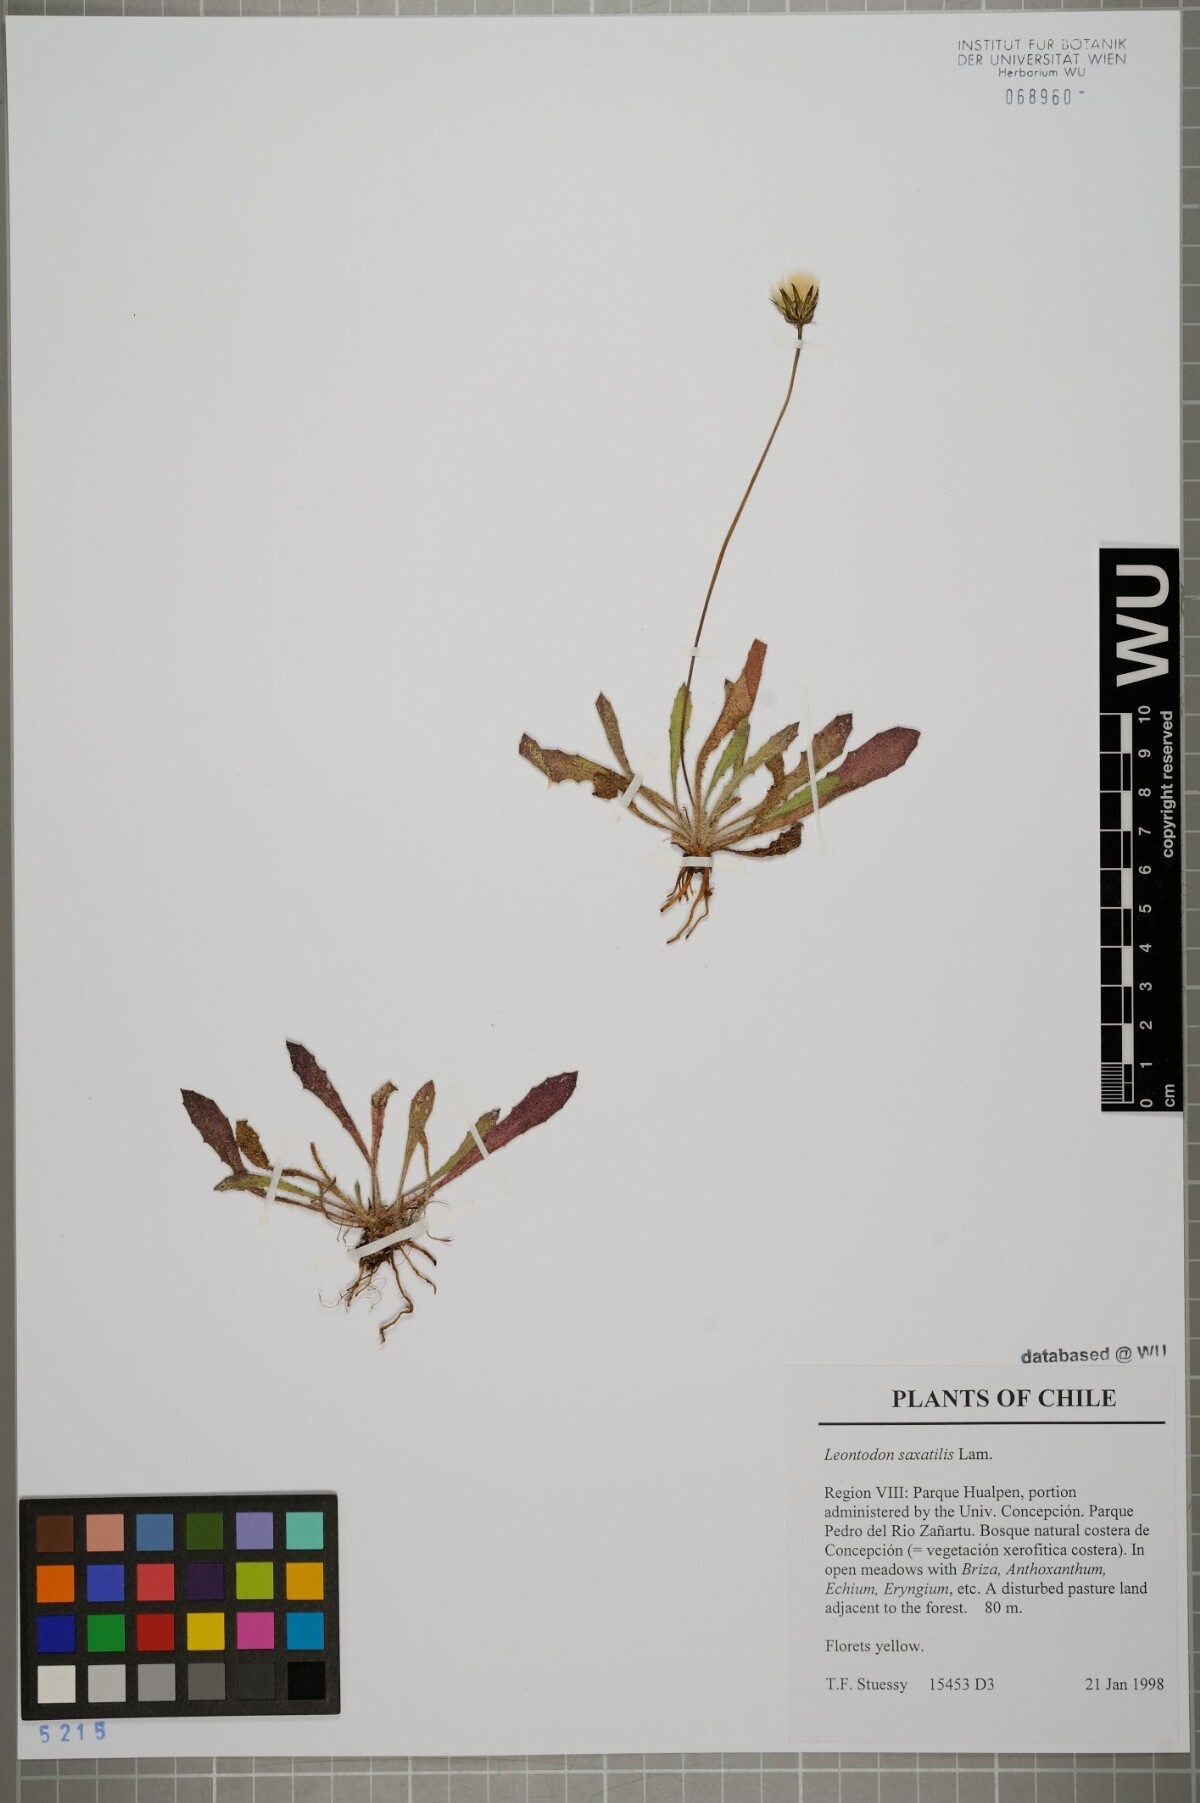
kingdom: Plantae
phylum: Tracheophyta
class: Magnoliopsida
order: Asterales
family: Asteraceae
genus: Thrincia
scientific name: Thrincia saxatilis
